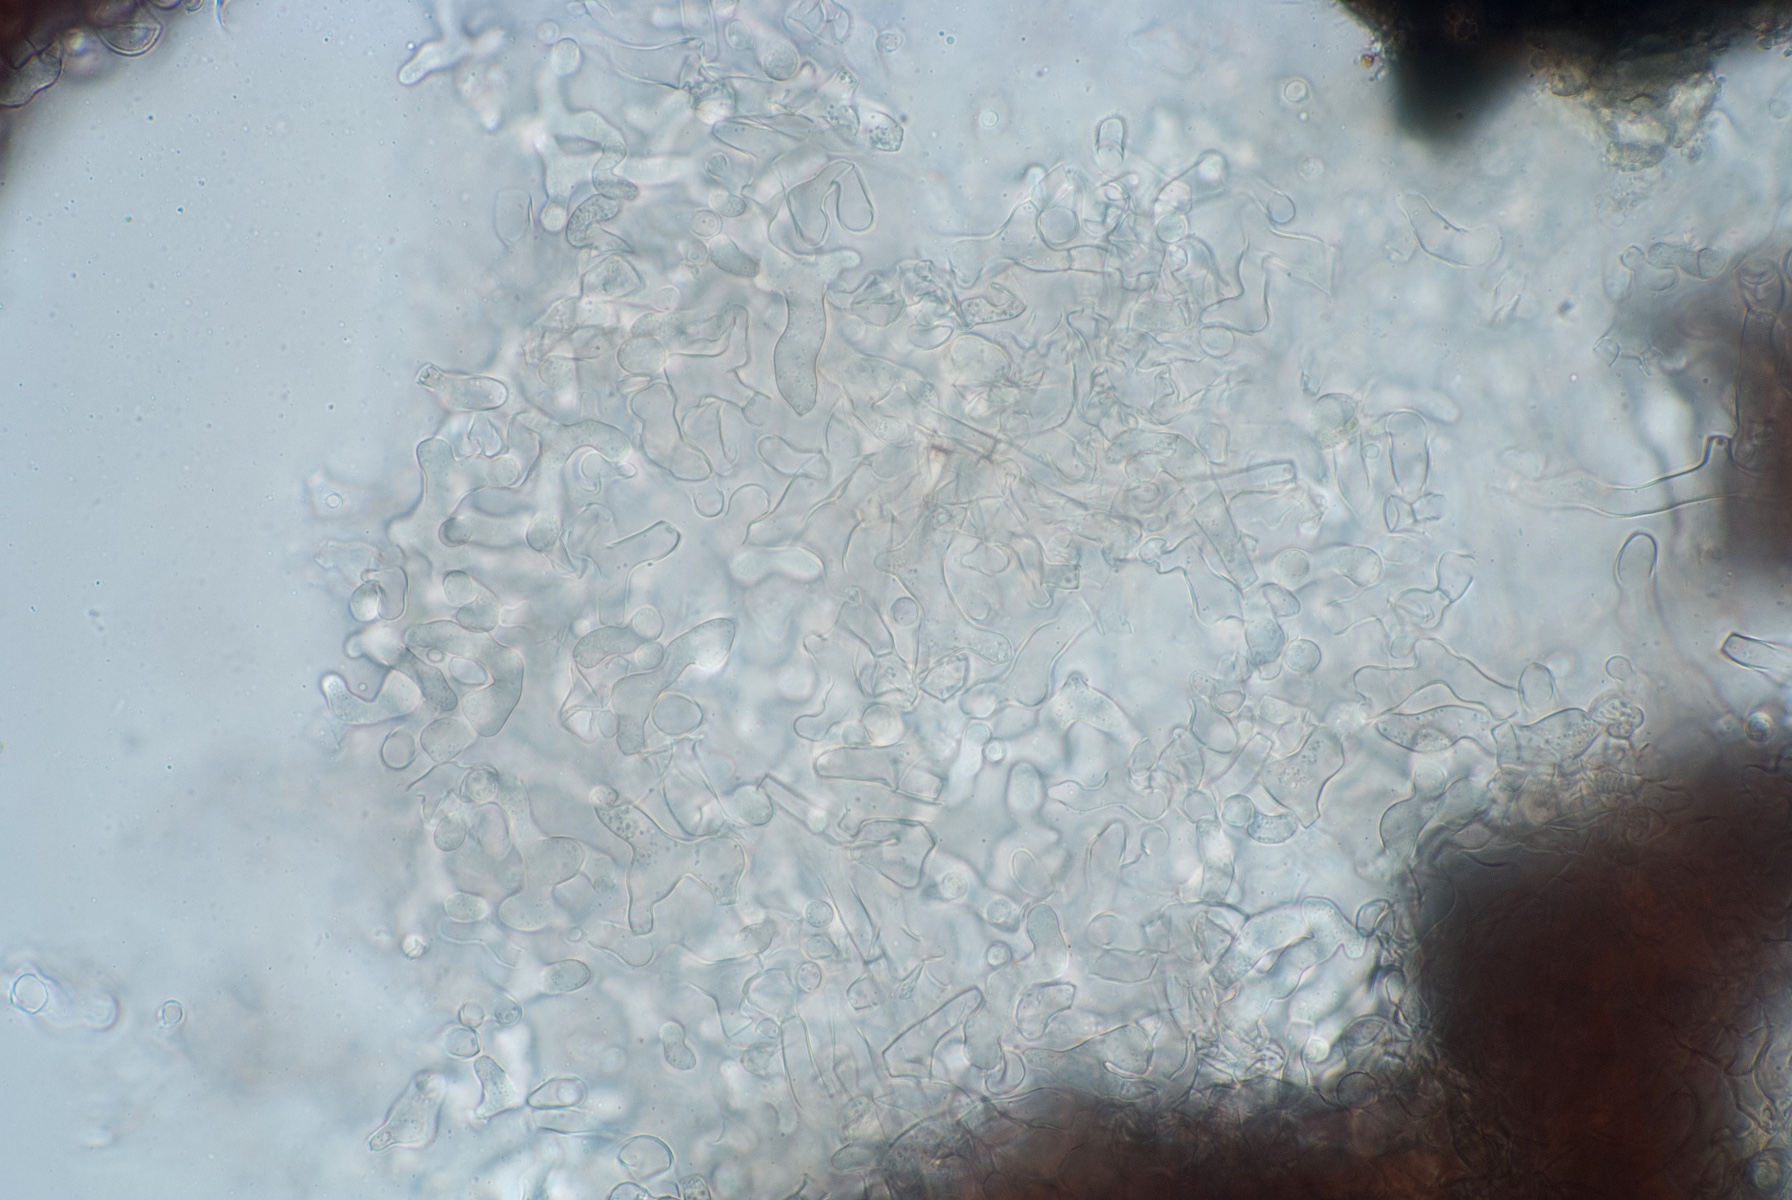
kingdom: Fungi
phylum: Ascomycota
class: Dothideomycetes
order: Pleosporales
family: Phaeosphaeriaceae
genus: Stagonospora
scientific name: Stagonospora typhoidearum
